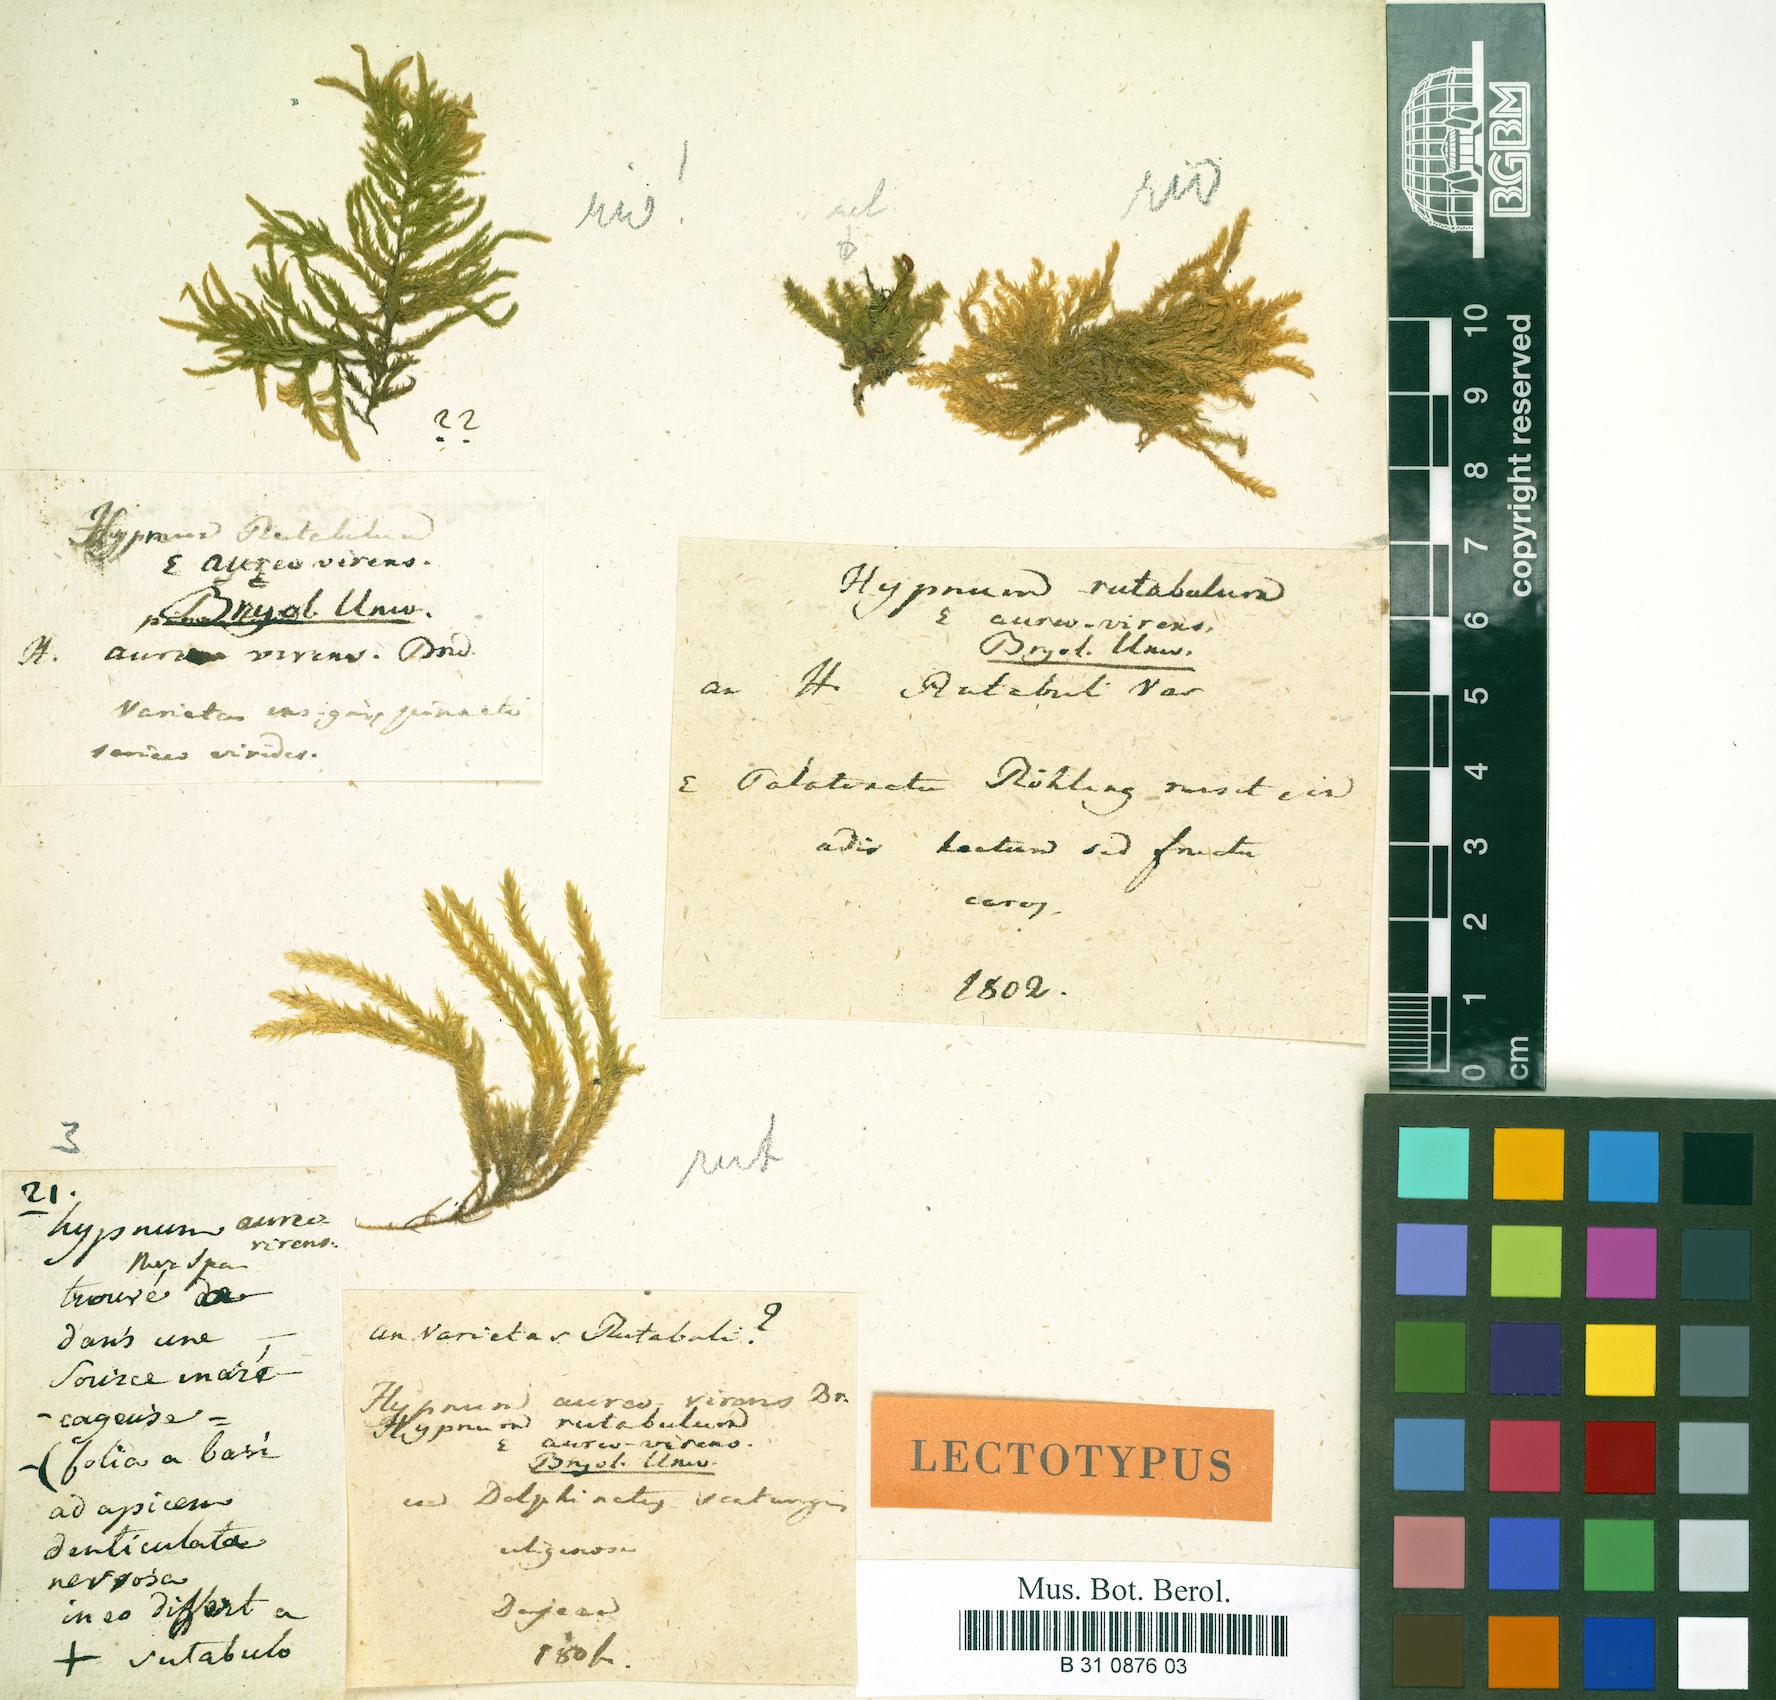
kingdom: Plantae
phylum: Bryophyta
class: Bryopsida
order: Hypnales
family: Brachytheciaceae
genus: Brachythecium
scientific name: Brachythecium rutabulum
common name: Rough-stalked feather-moss
